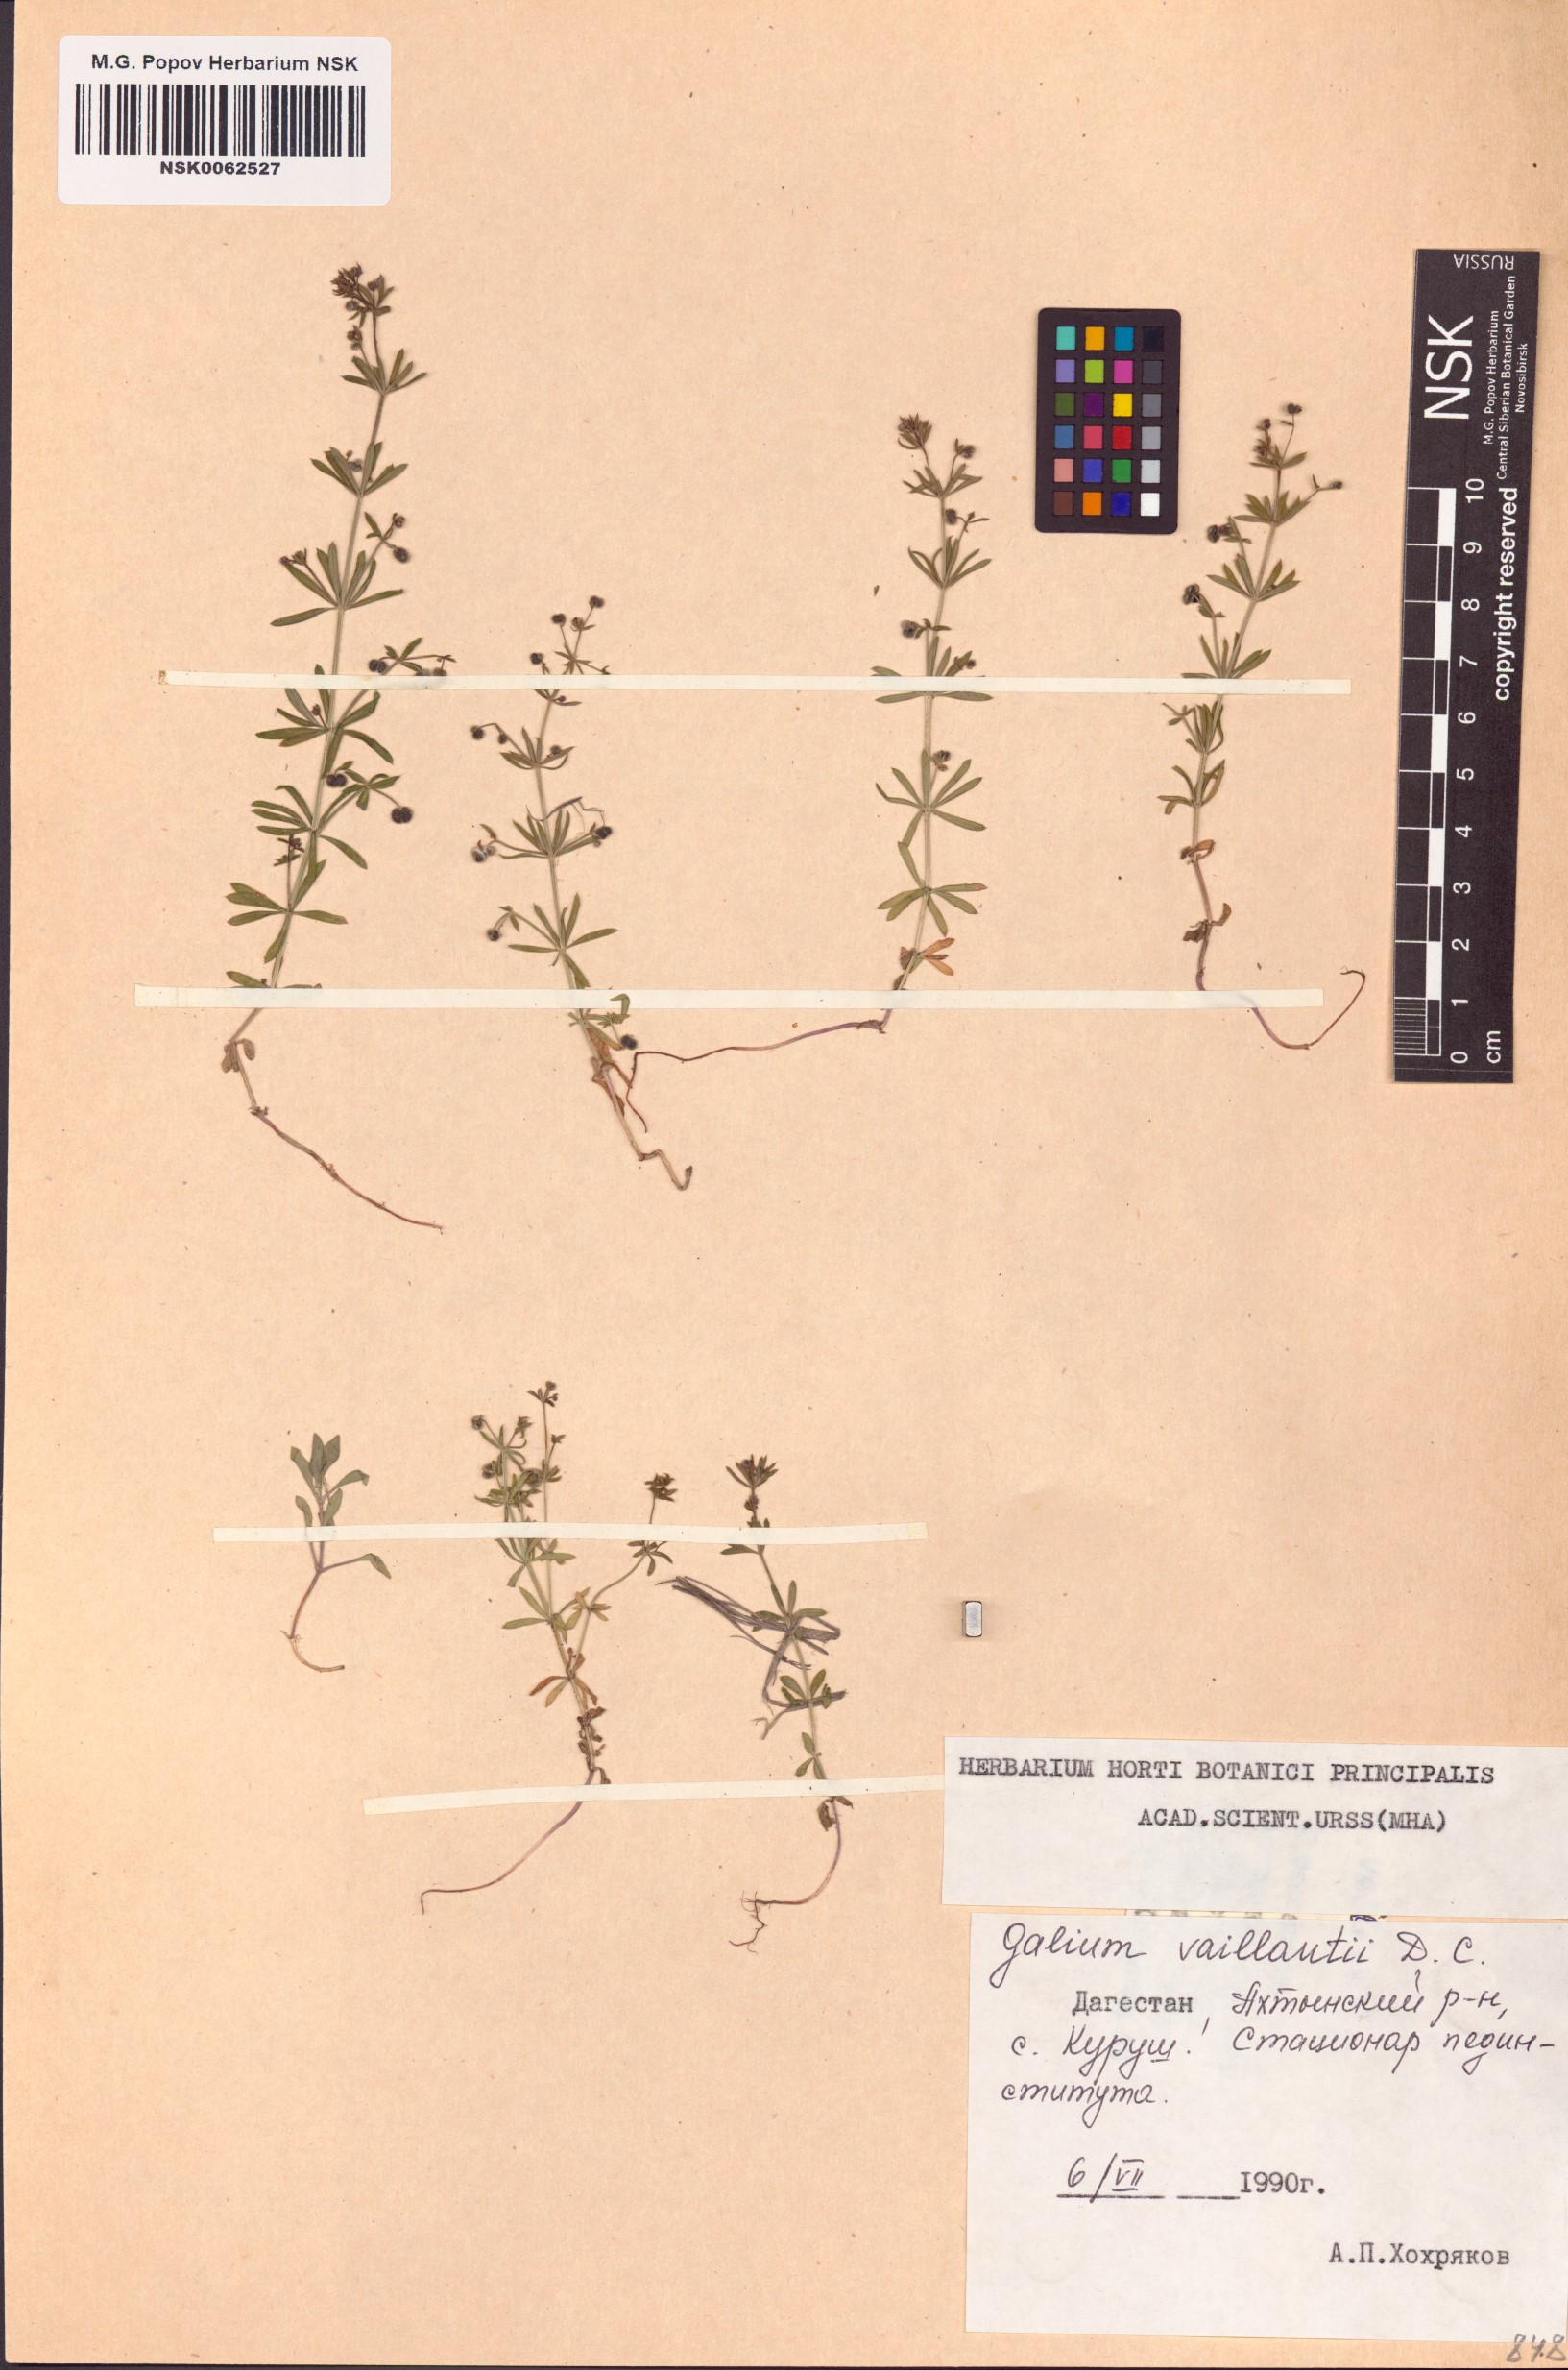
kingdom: Plantae
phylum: Tracheophyta
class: Magnoliopsida
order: Gentianales
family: Rubiaceae
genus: Galium
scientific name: Galium spurium
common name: False cleavers
